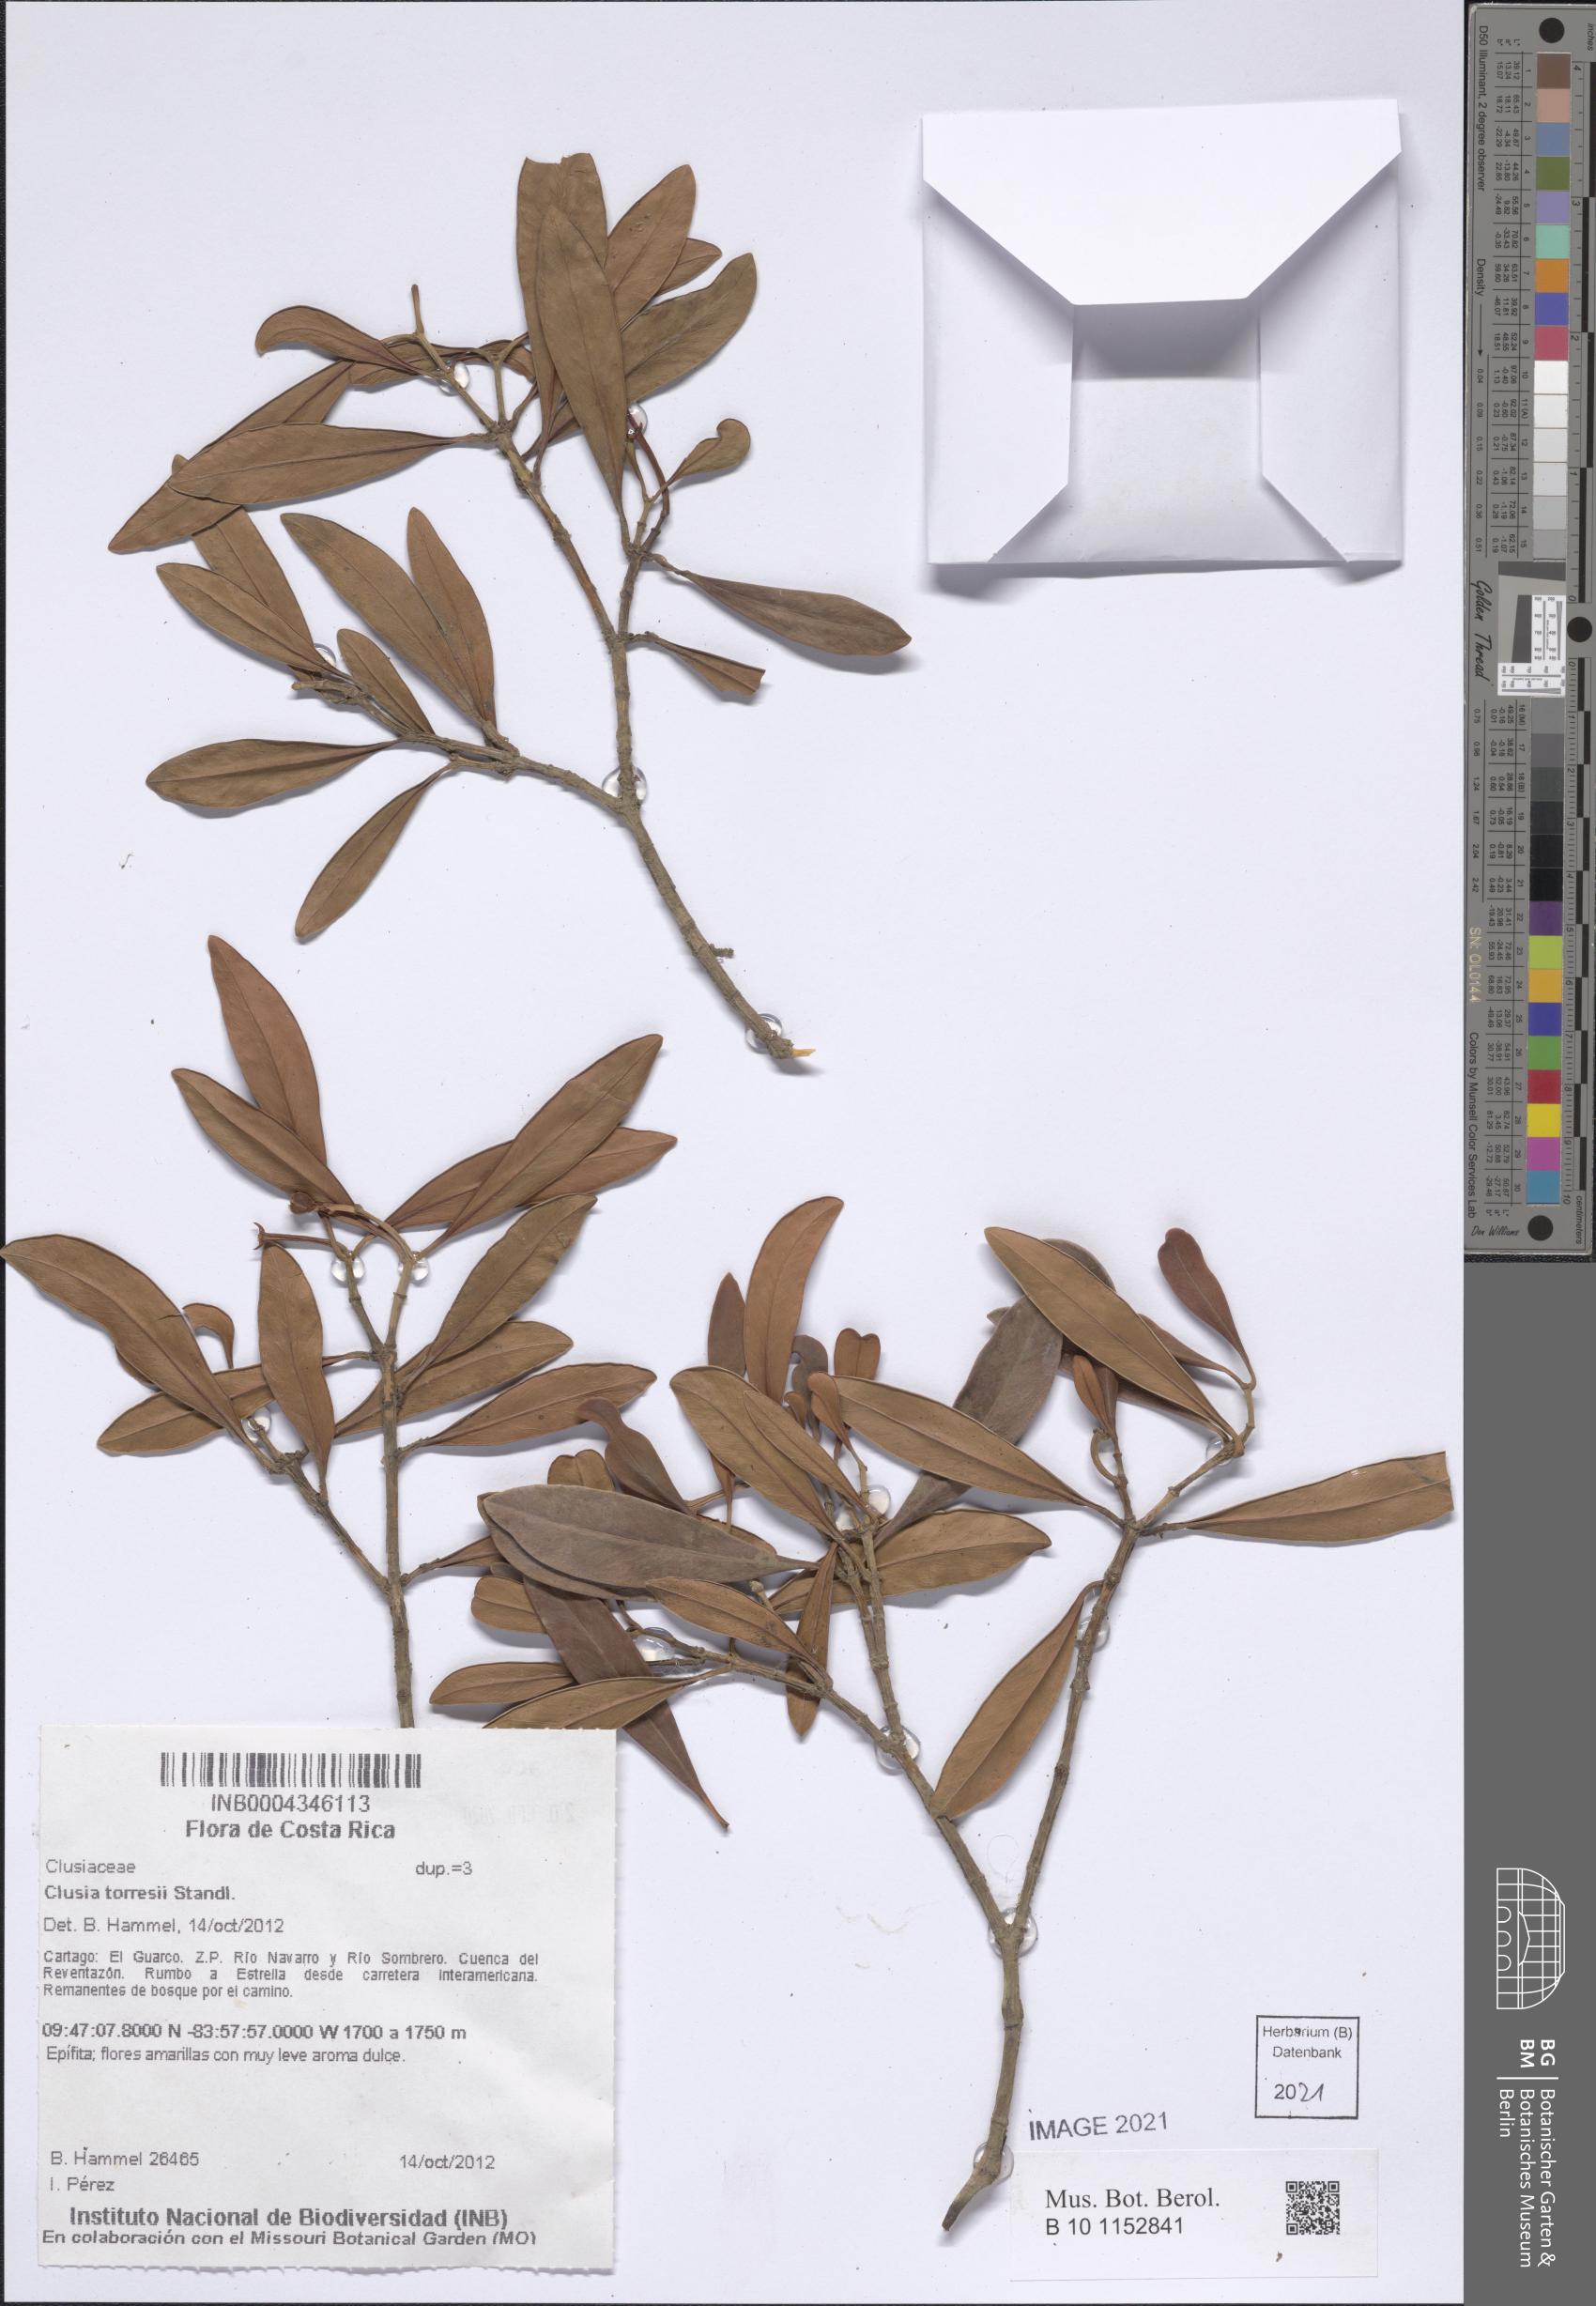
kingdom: Plantae
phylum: Tracheophyta
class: Magnoliopsida
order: Malpighiales
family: Clusiaceae
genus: Clusia
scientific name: Clusia torresii
